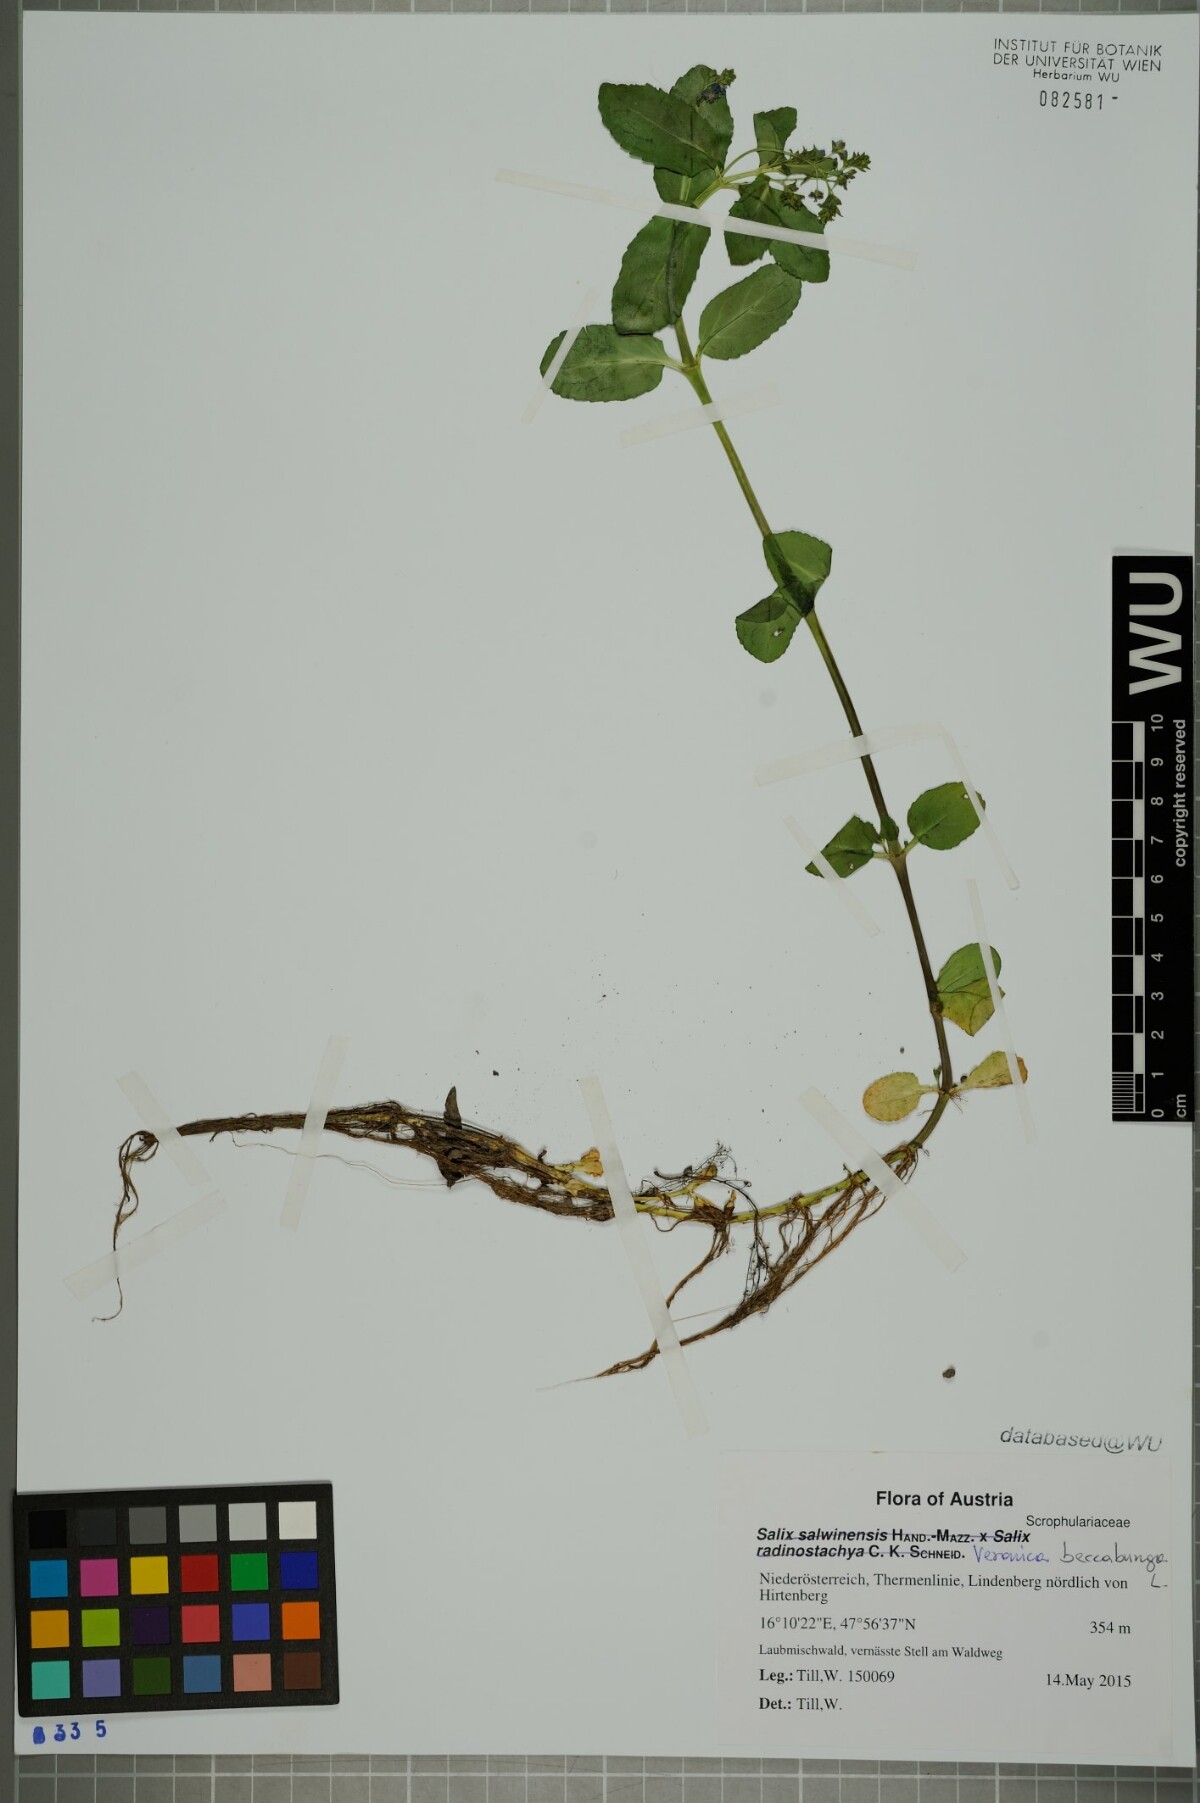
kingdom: Plantae
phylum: Tracheophyta
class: Magnoliopsida
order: Lamiales
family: Plantaginaceae
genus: Veronica
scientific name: Veronica beccabunga
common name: Brooklime
